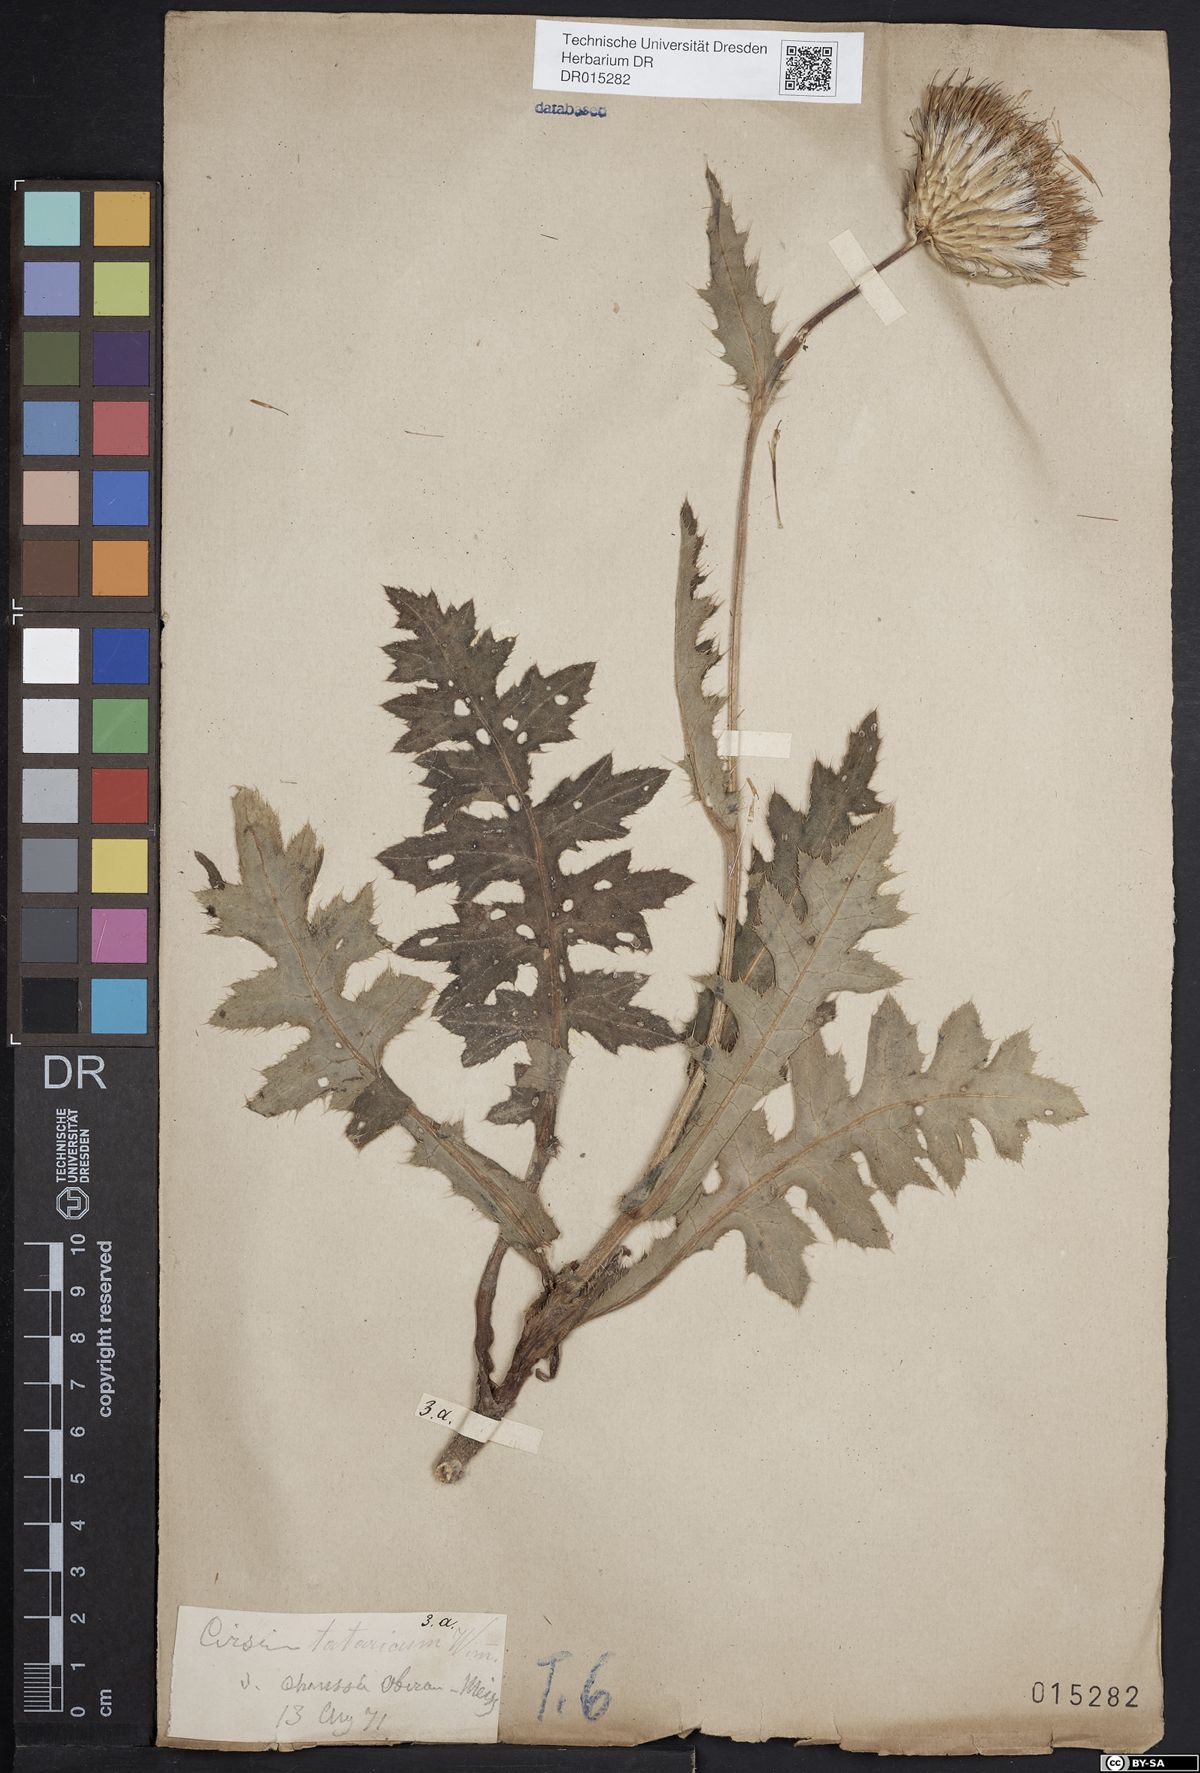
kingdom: Plantae
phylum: Tracheophyta
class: Magnoliopsida
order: Asterales
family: Asteraceae
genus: Cirsium
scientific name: Cirsium tataricum
